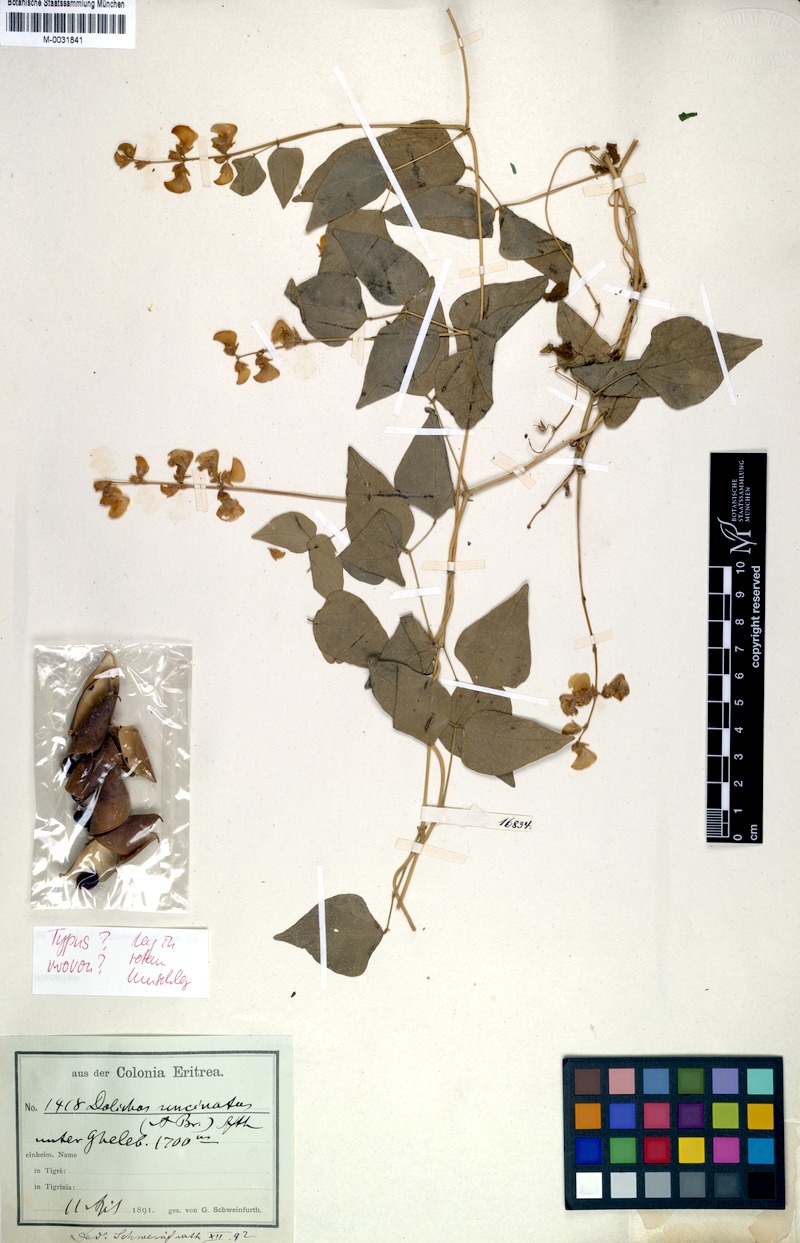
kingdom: Plantae
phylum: Tracheophyta
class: Magnoliopsida
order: Fabales
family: Fabaceae
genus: Teramnus
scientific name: Teramnus uncinatus
